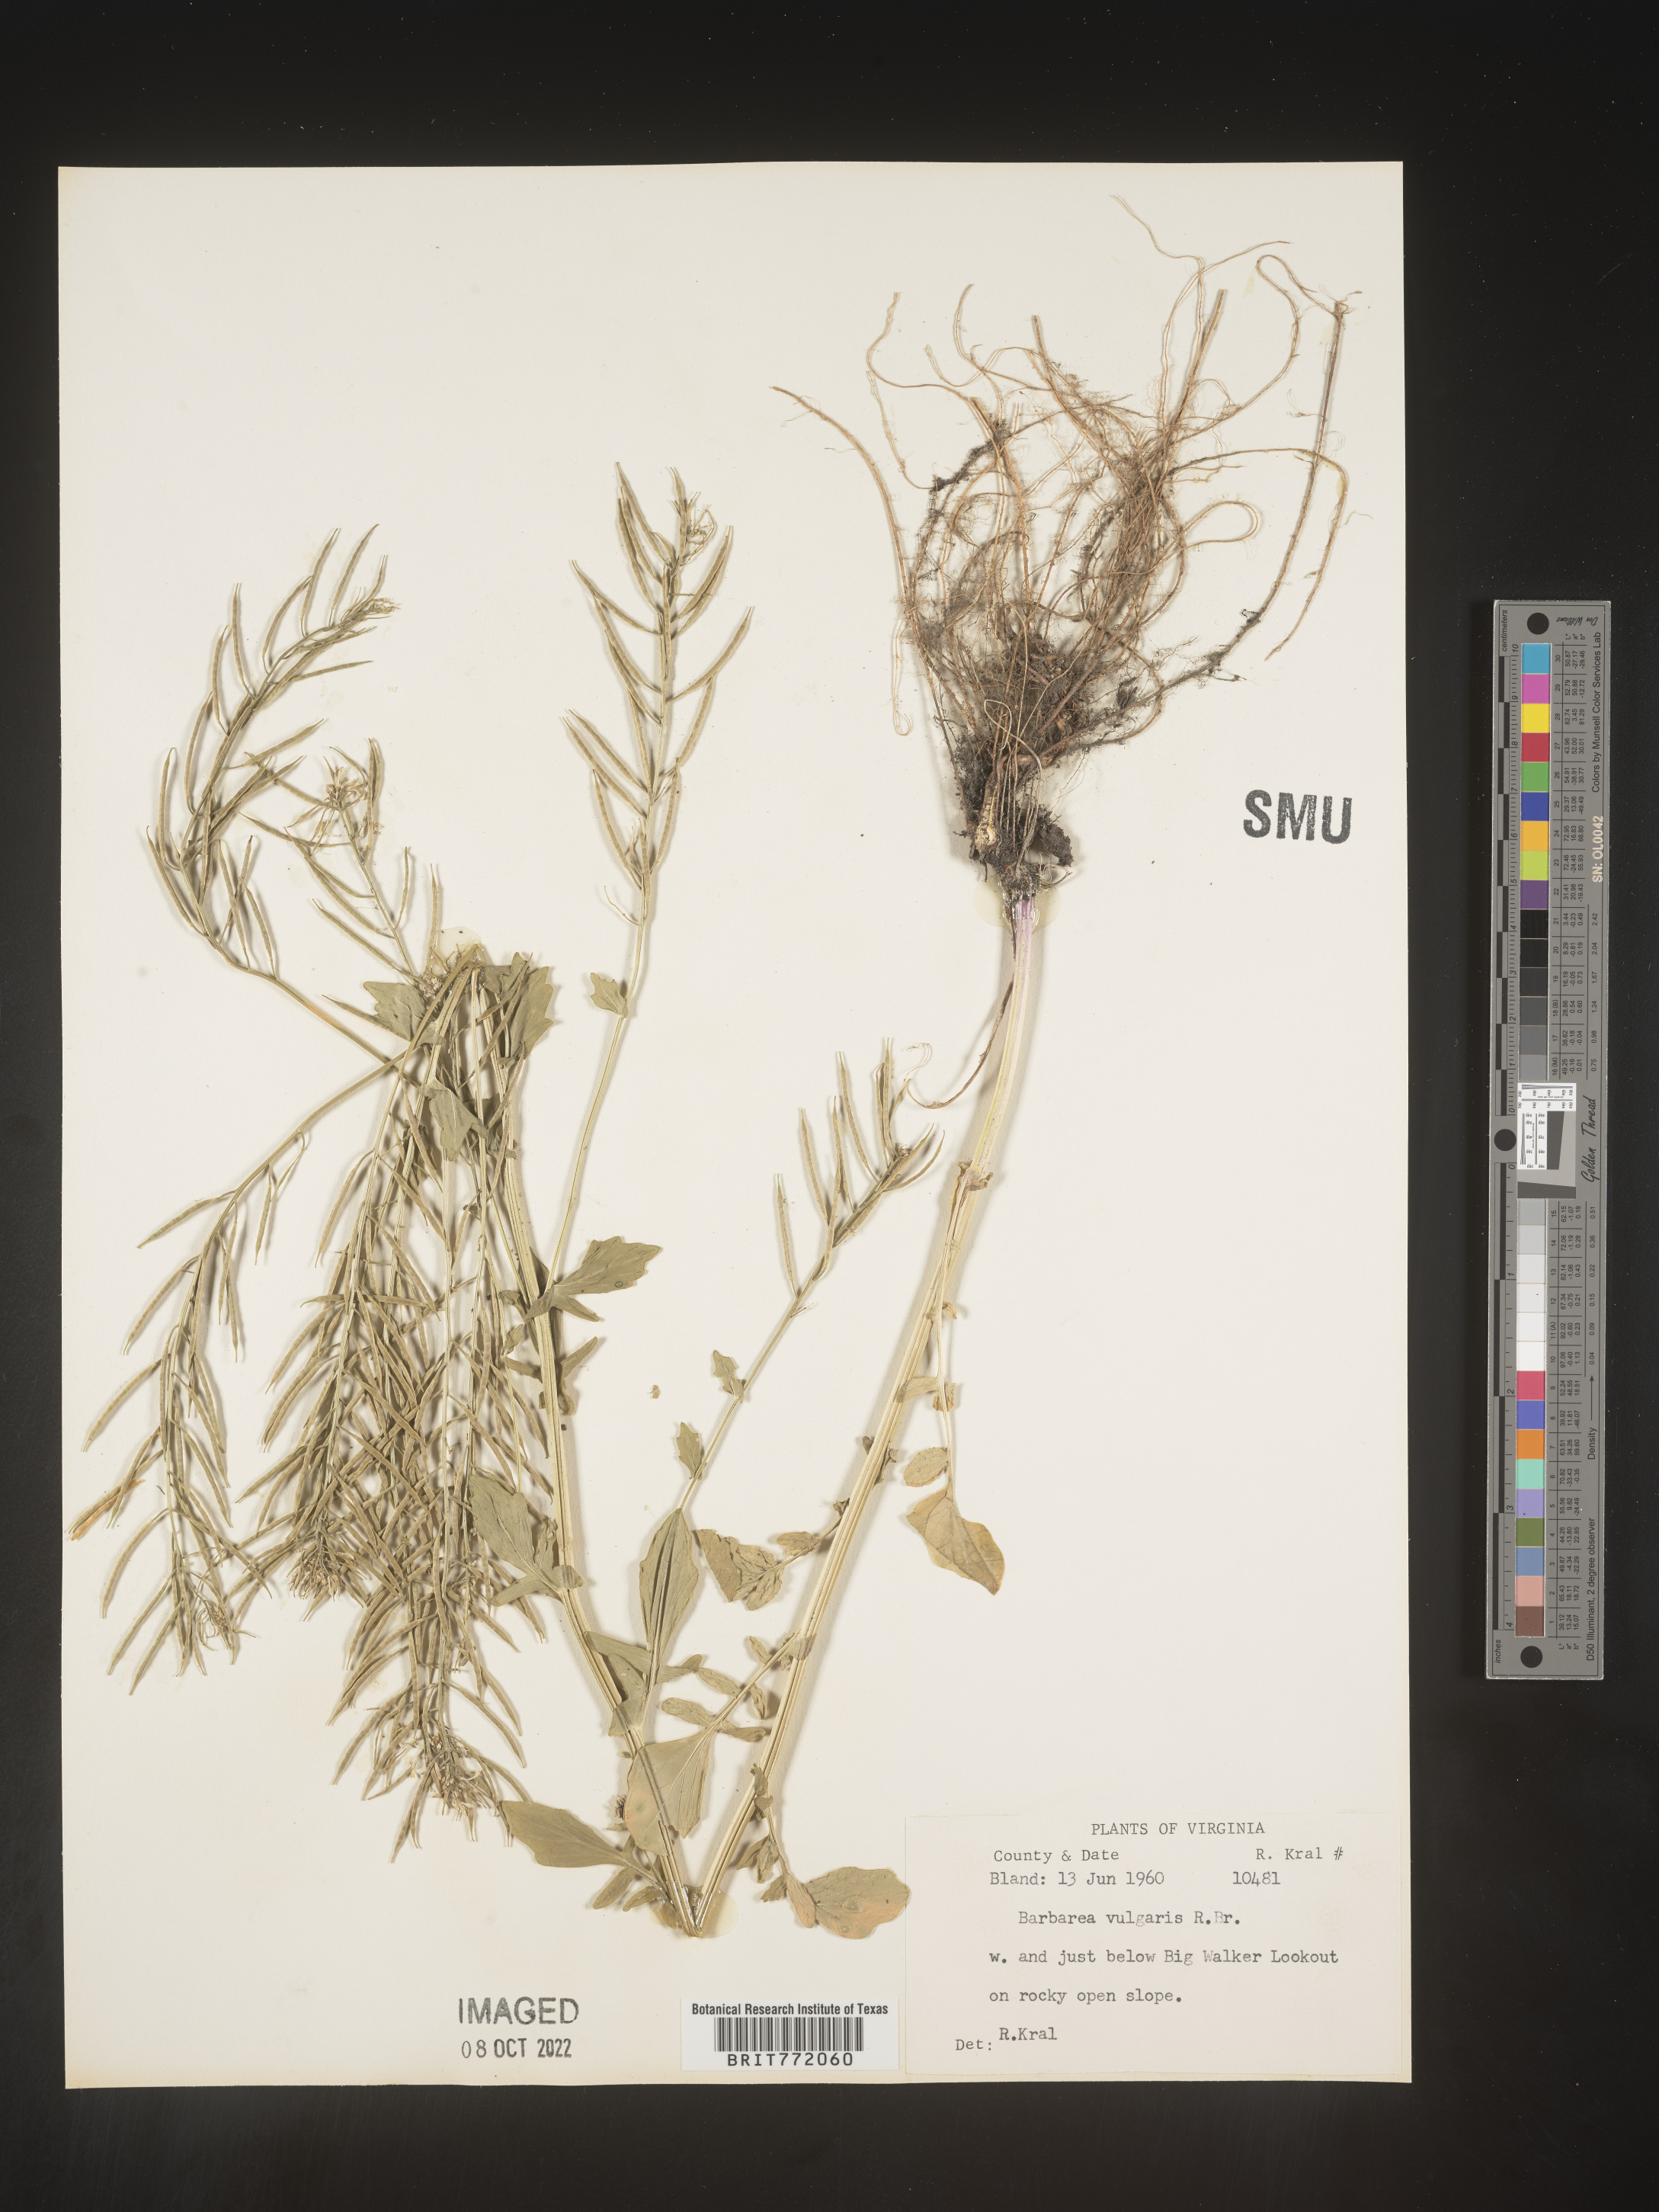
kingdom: Plantae
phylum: Tracheophyta
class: Magnoliopsida
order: Brassicales
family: Brassicaceae
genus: Barbarea
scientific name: Barbarea vulgaris
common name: Cressy-greens
